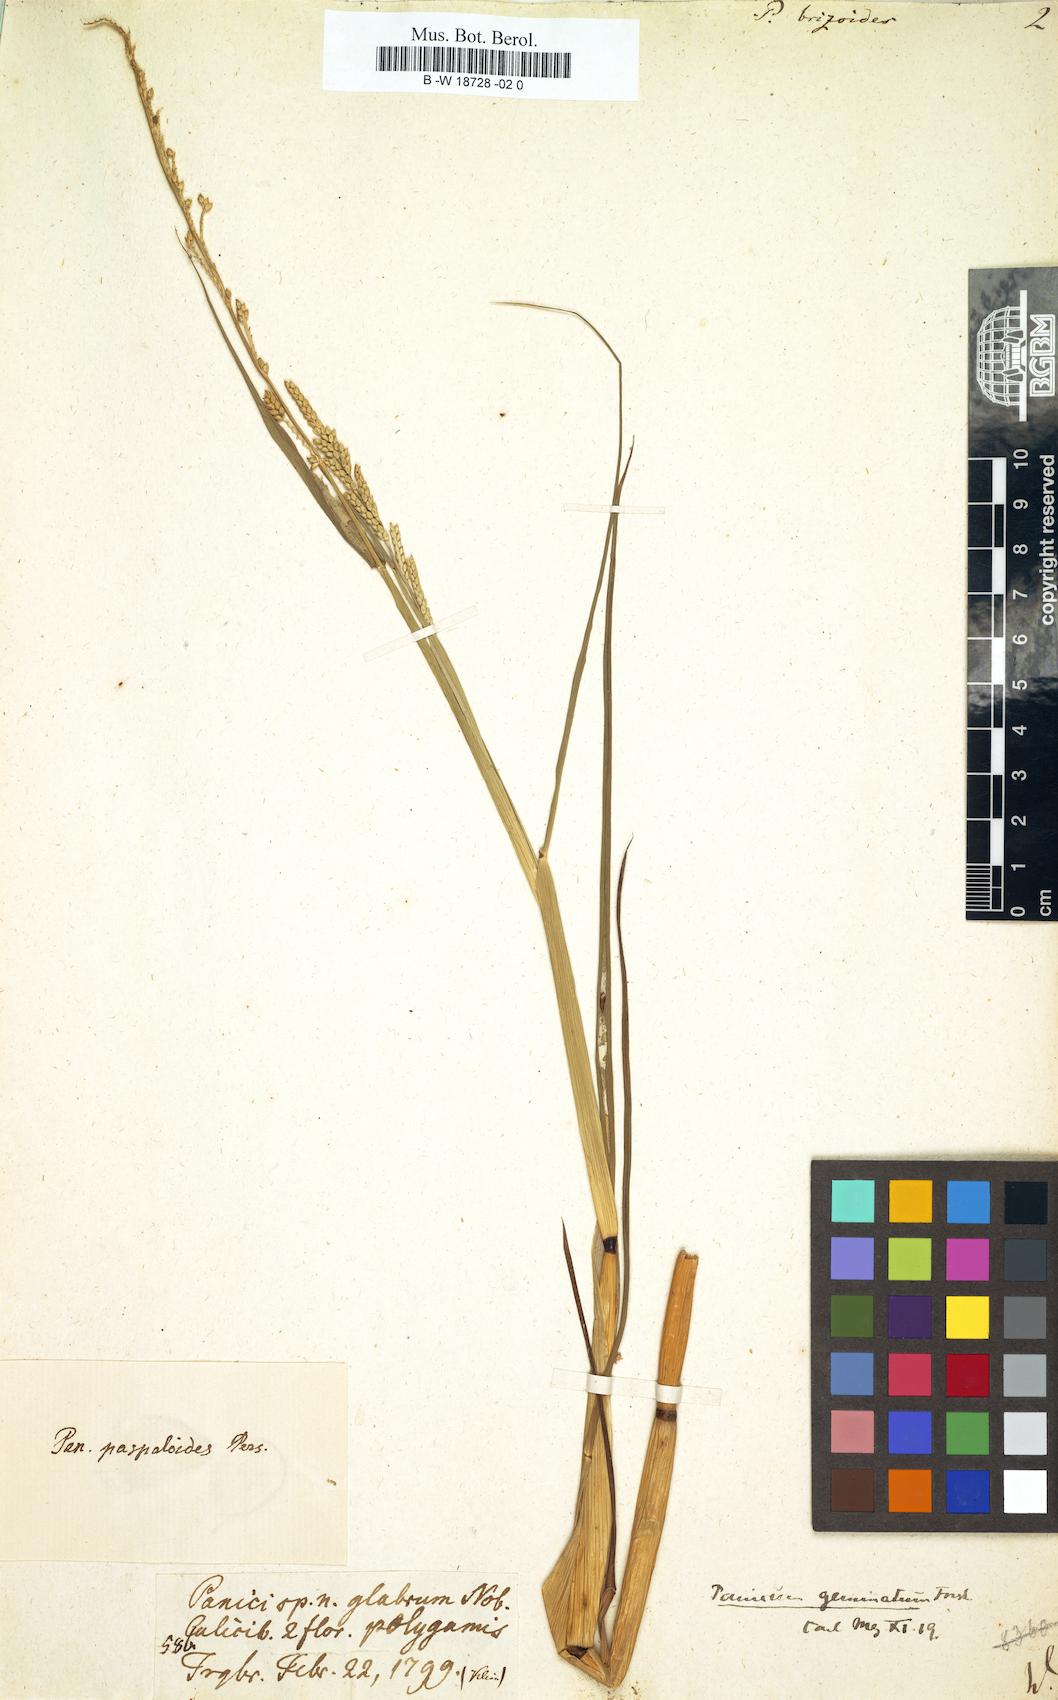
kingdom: Plantae
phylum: Tracheophyta
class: Liliopsida
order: Poales
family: Poaceae
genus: Setaria
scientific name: Setaria flavida
